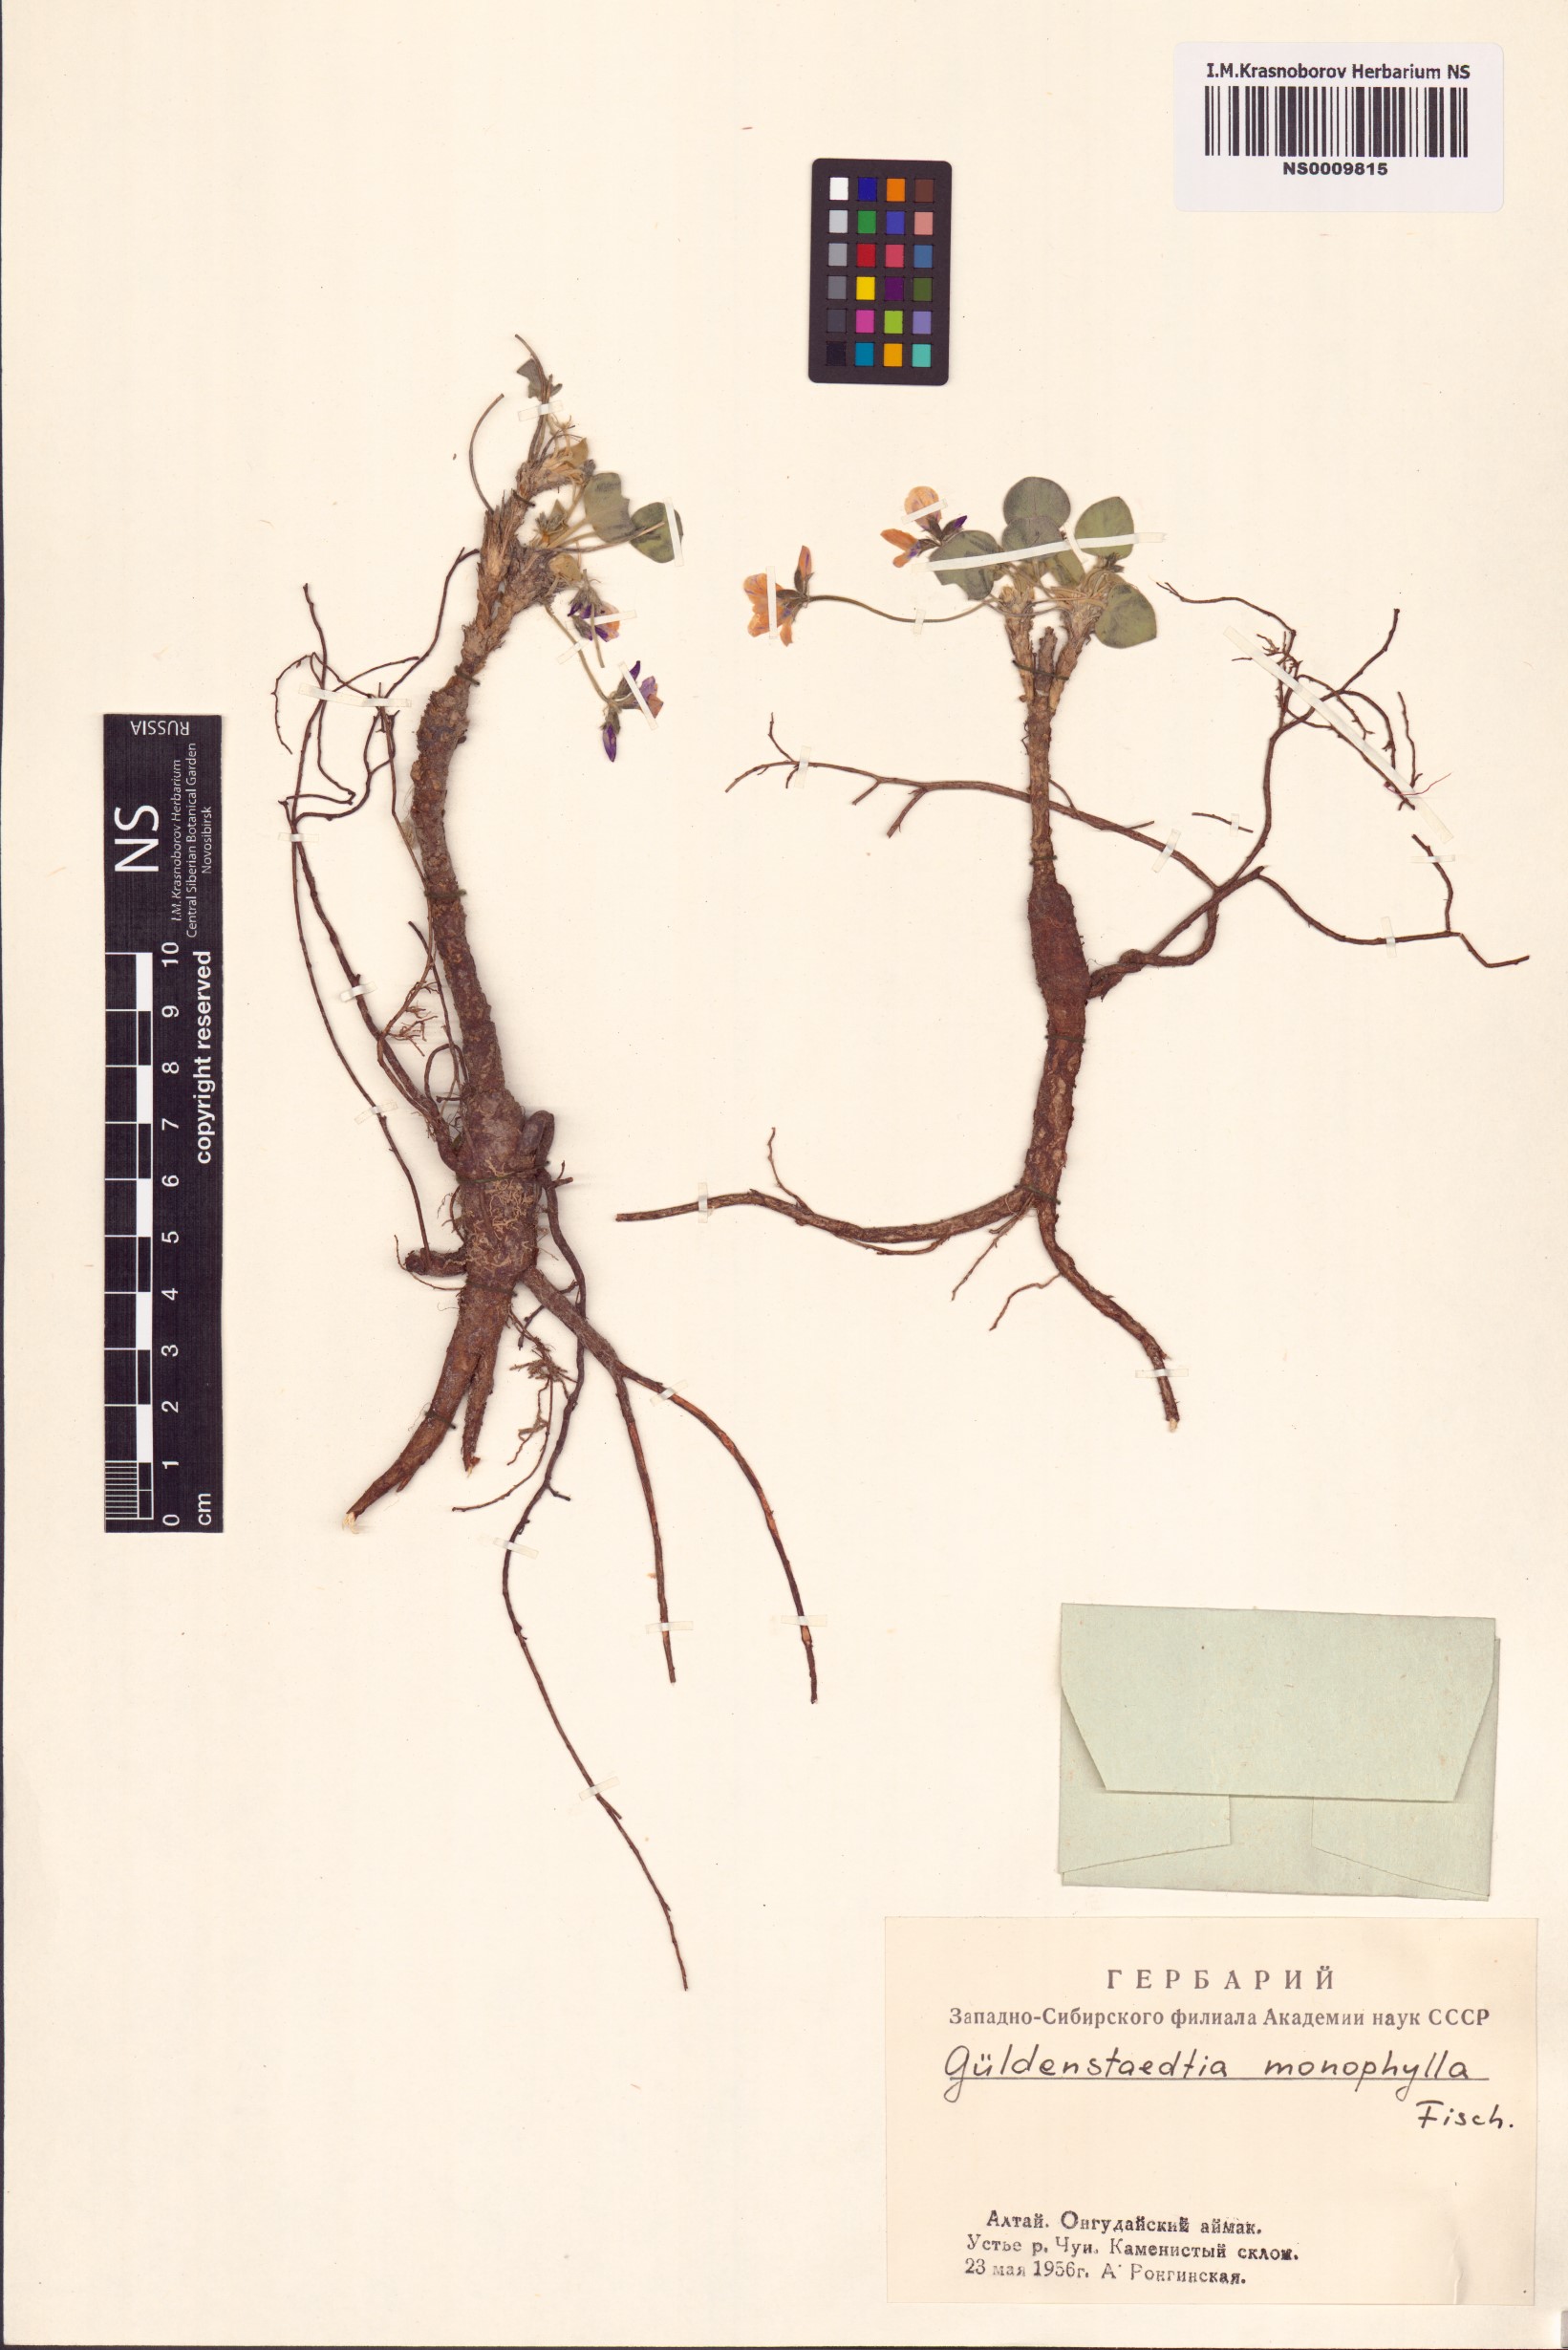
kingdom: Plantae
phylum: Tracheophyta
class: Magnoliopsida
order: Fabales
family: Fabaceae
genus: Gueldenstaedtia
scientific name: Gueldenstaedtia monophylla
